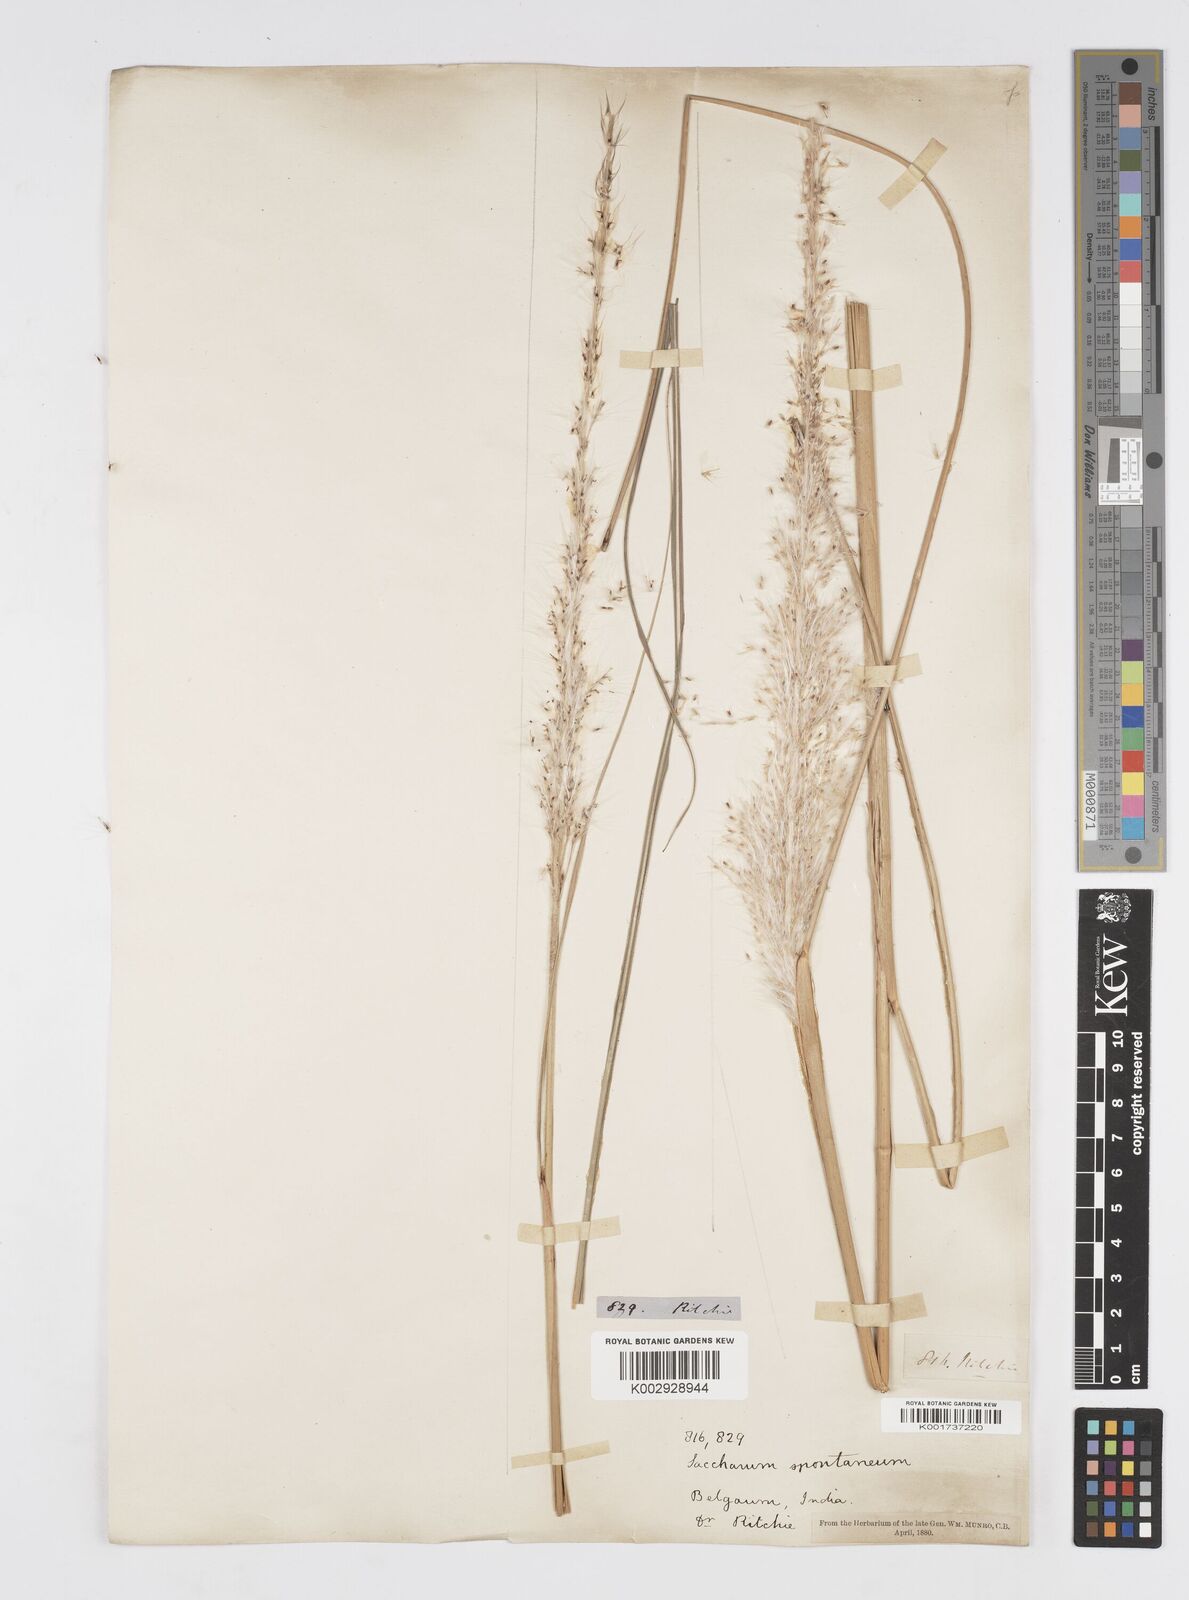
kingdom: Plantae
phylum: Tracheophyta
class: Liliopsida
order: Poales
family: Poaceae
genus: Saccharum
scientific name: Saccharum spontaneum
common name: Wild sugarcane
